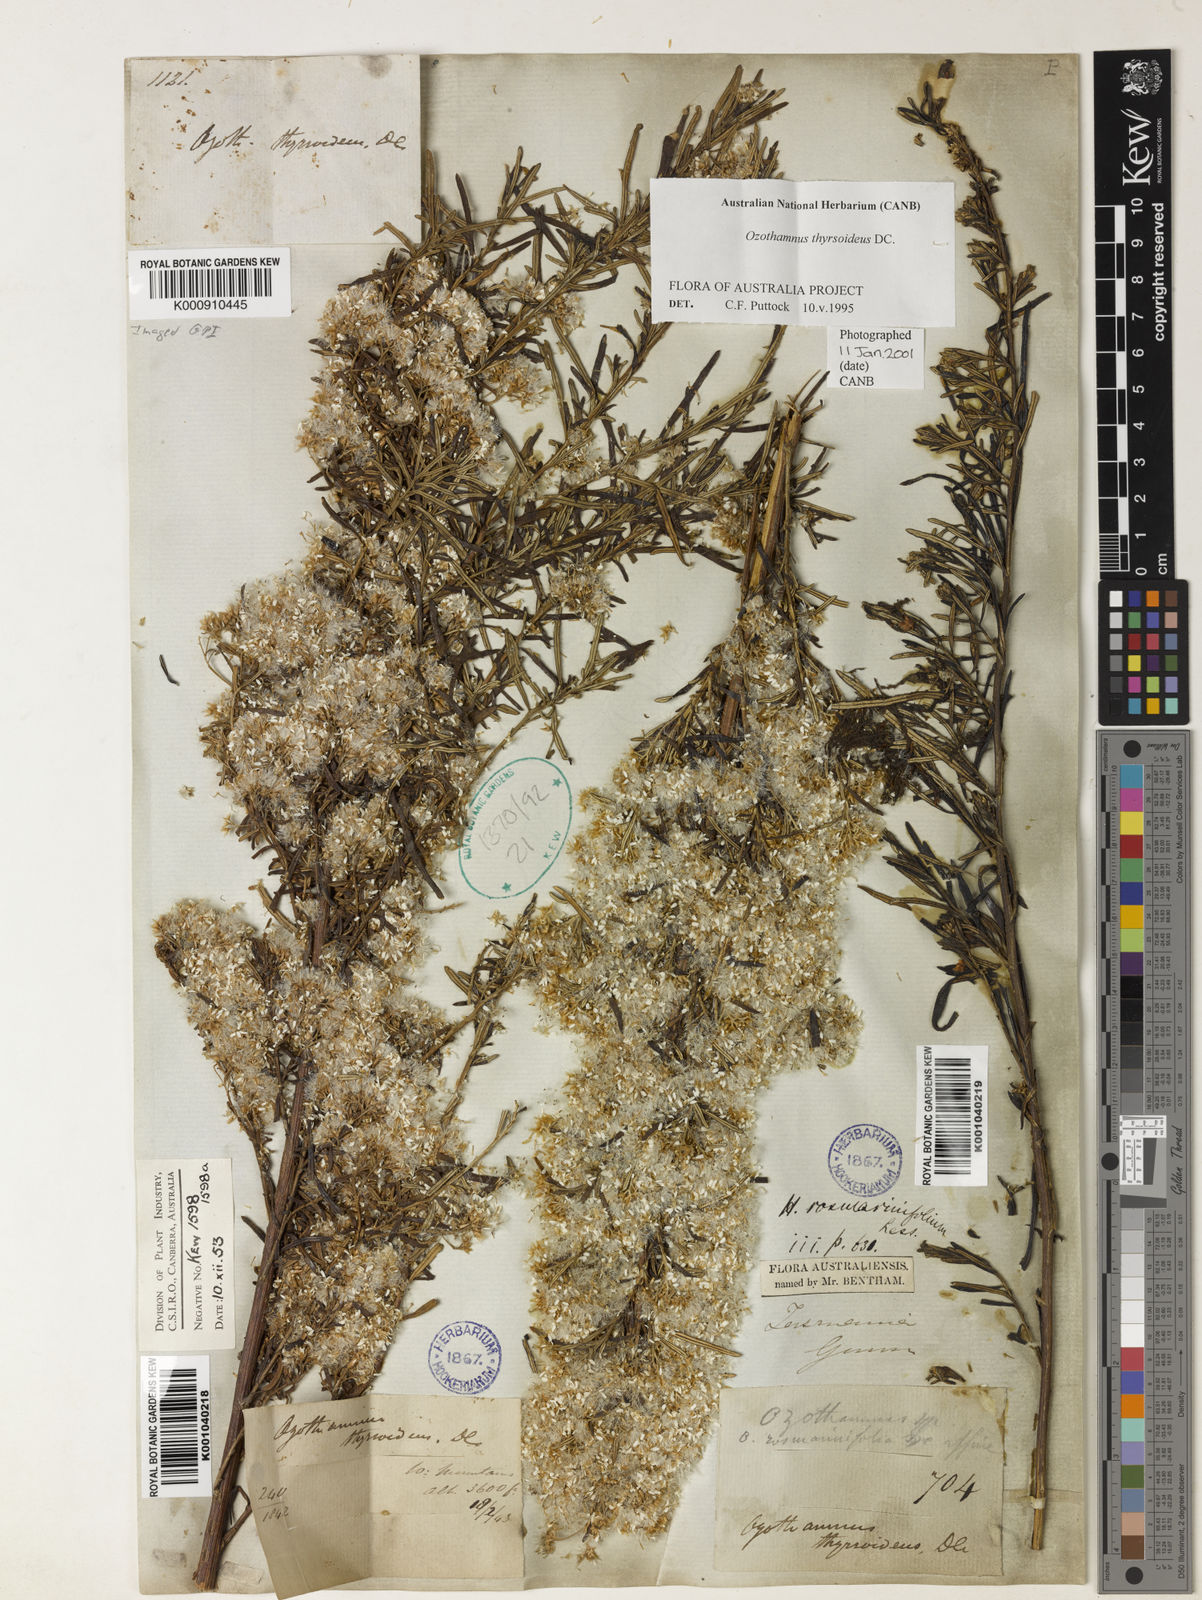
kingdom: Plantae
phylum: Tracheophyta
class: Magnoliopsida
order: Asterales
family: Asteraceae
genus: Ozothamnus
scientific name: Ozothamnus thyrsoideus
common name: Snow-in-summer
